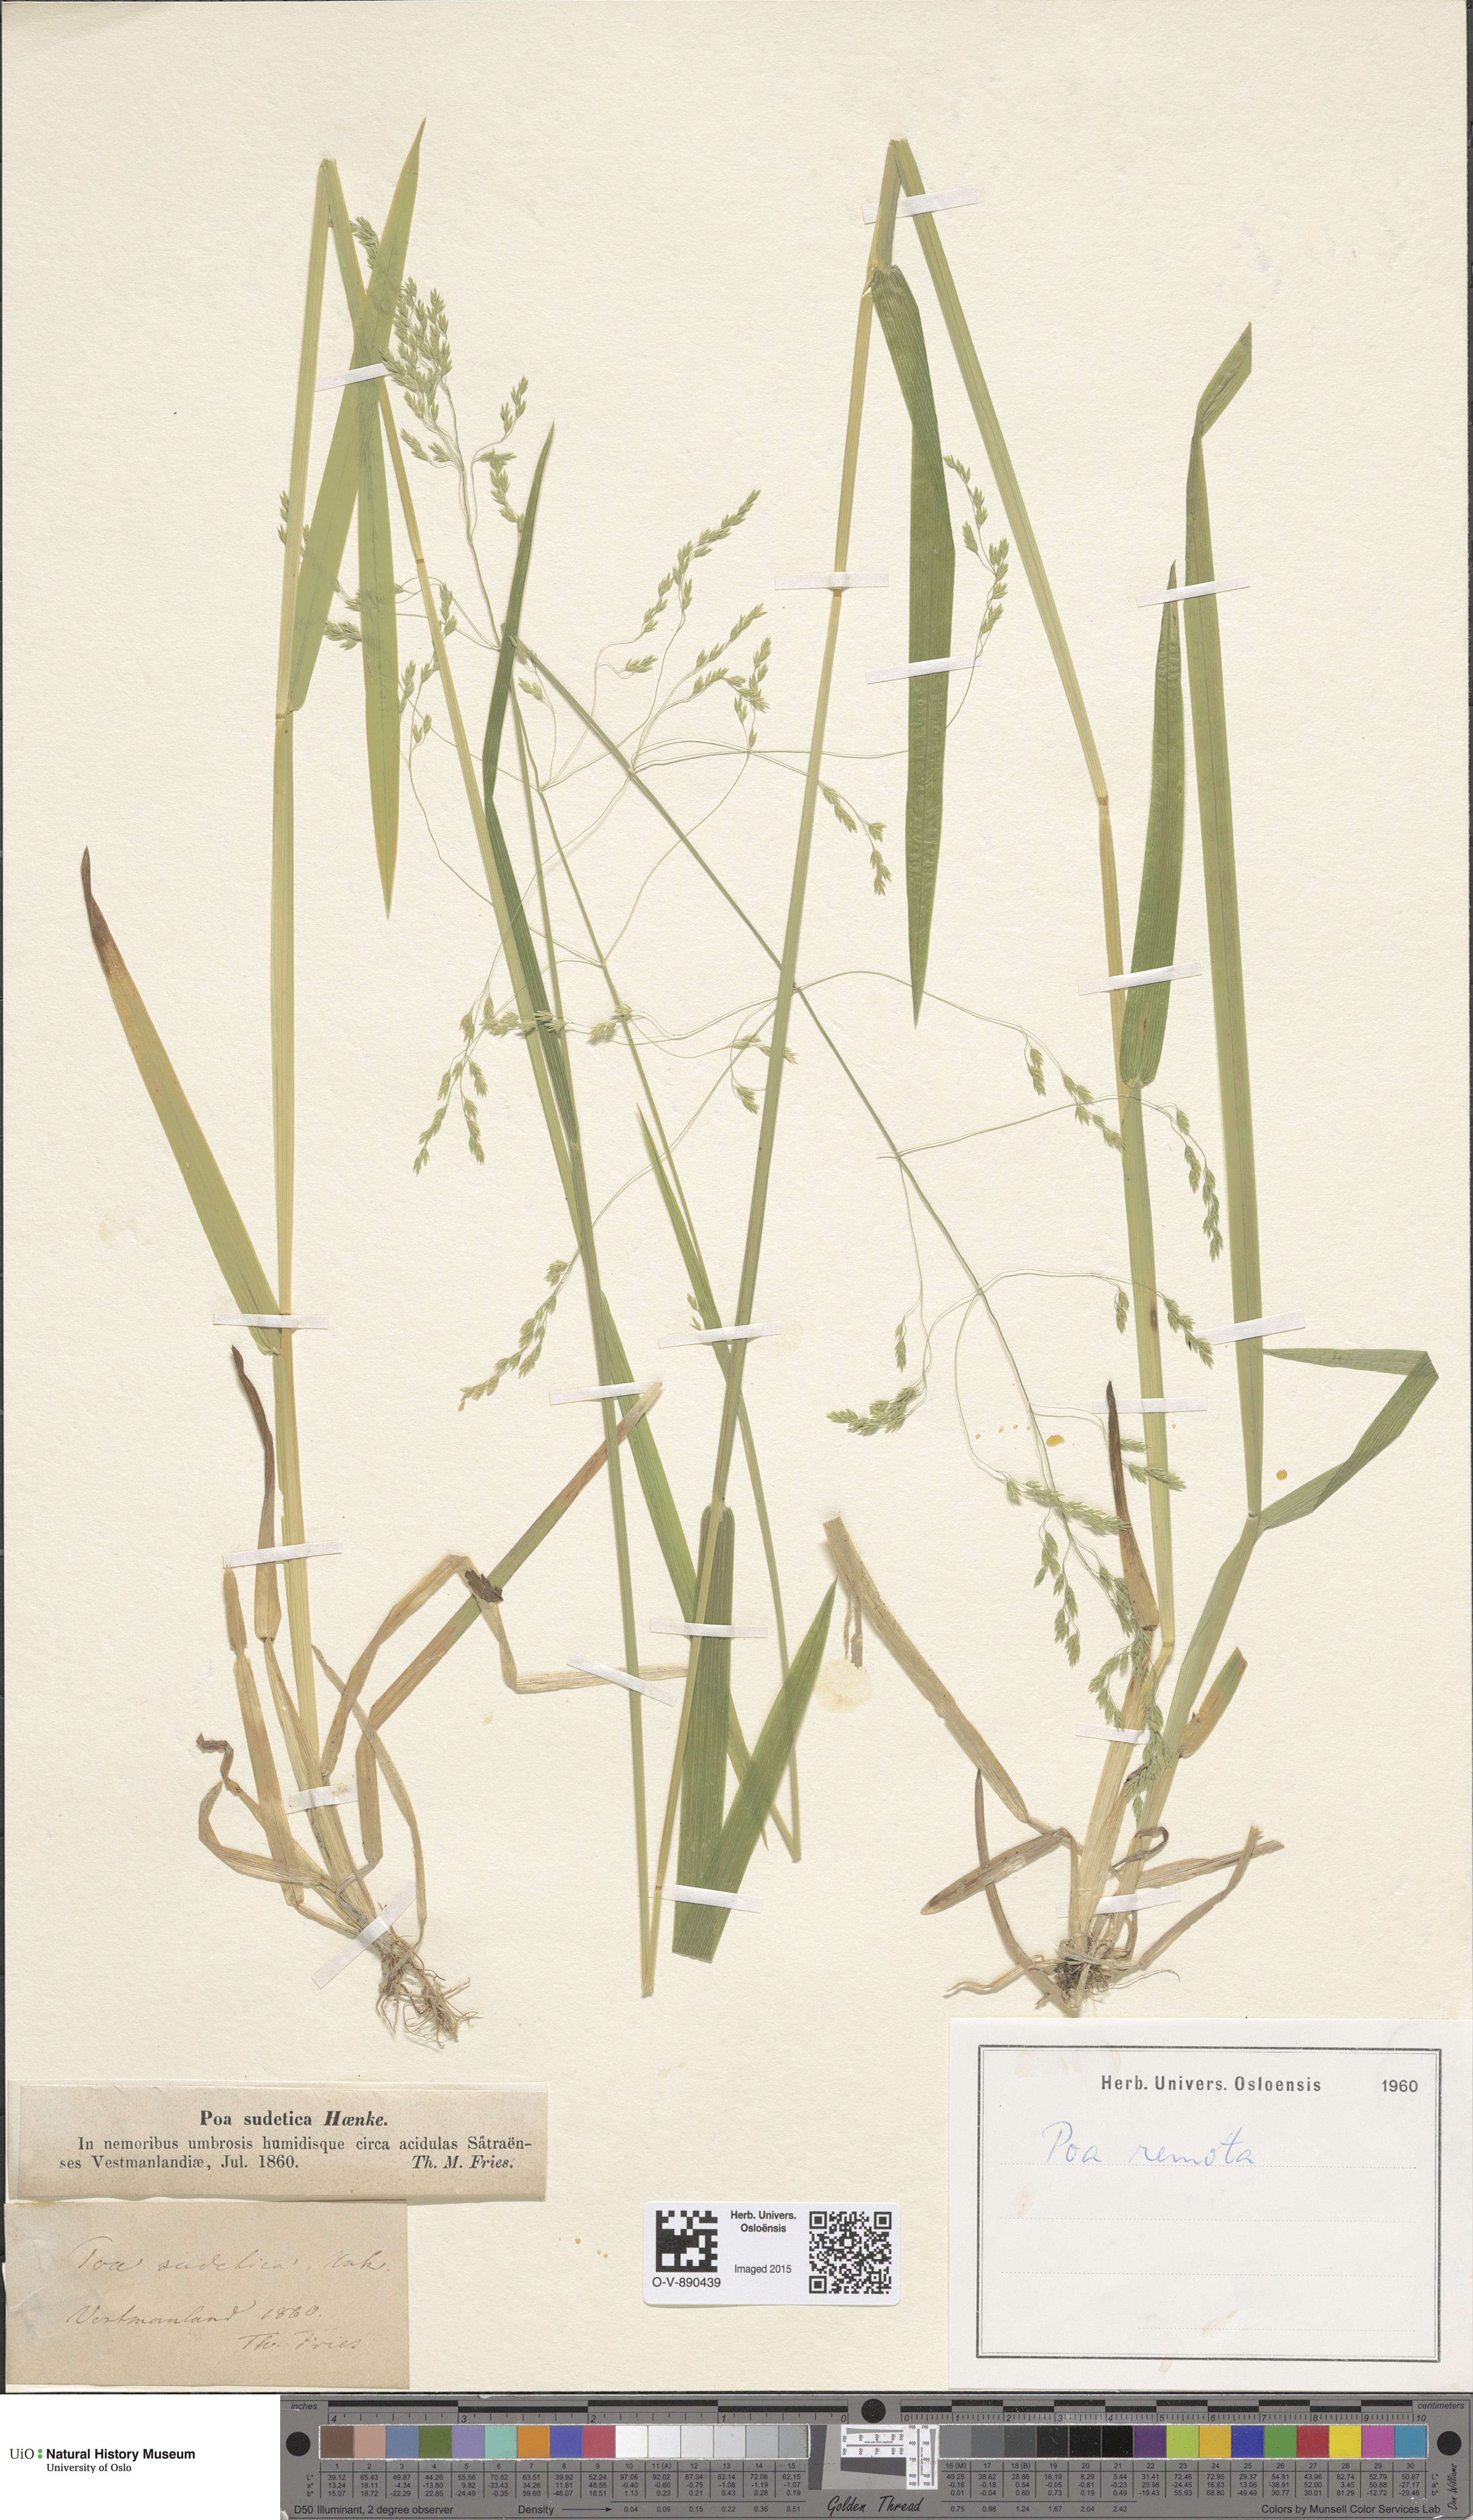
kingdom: Plantae
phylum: Tracheophyta
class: Liliopsida
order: Poales
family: Poaceae
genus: Poa
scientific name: Poa remota
